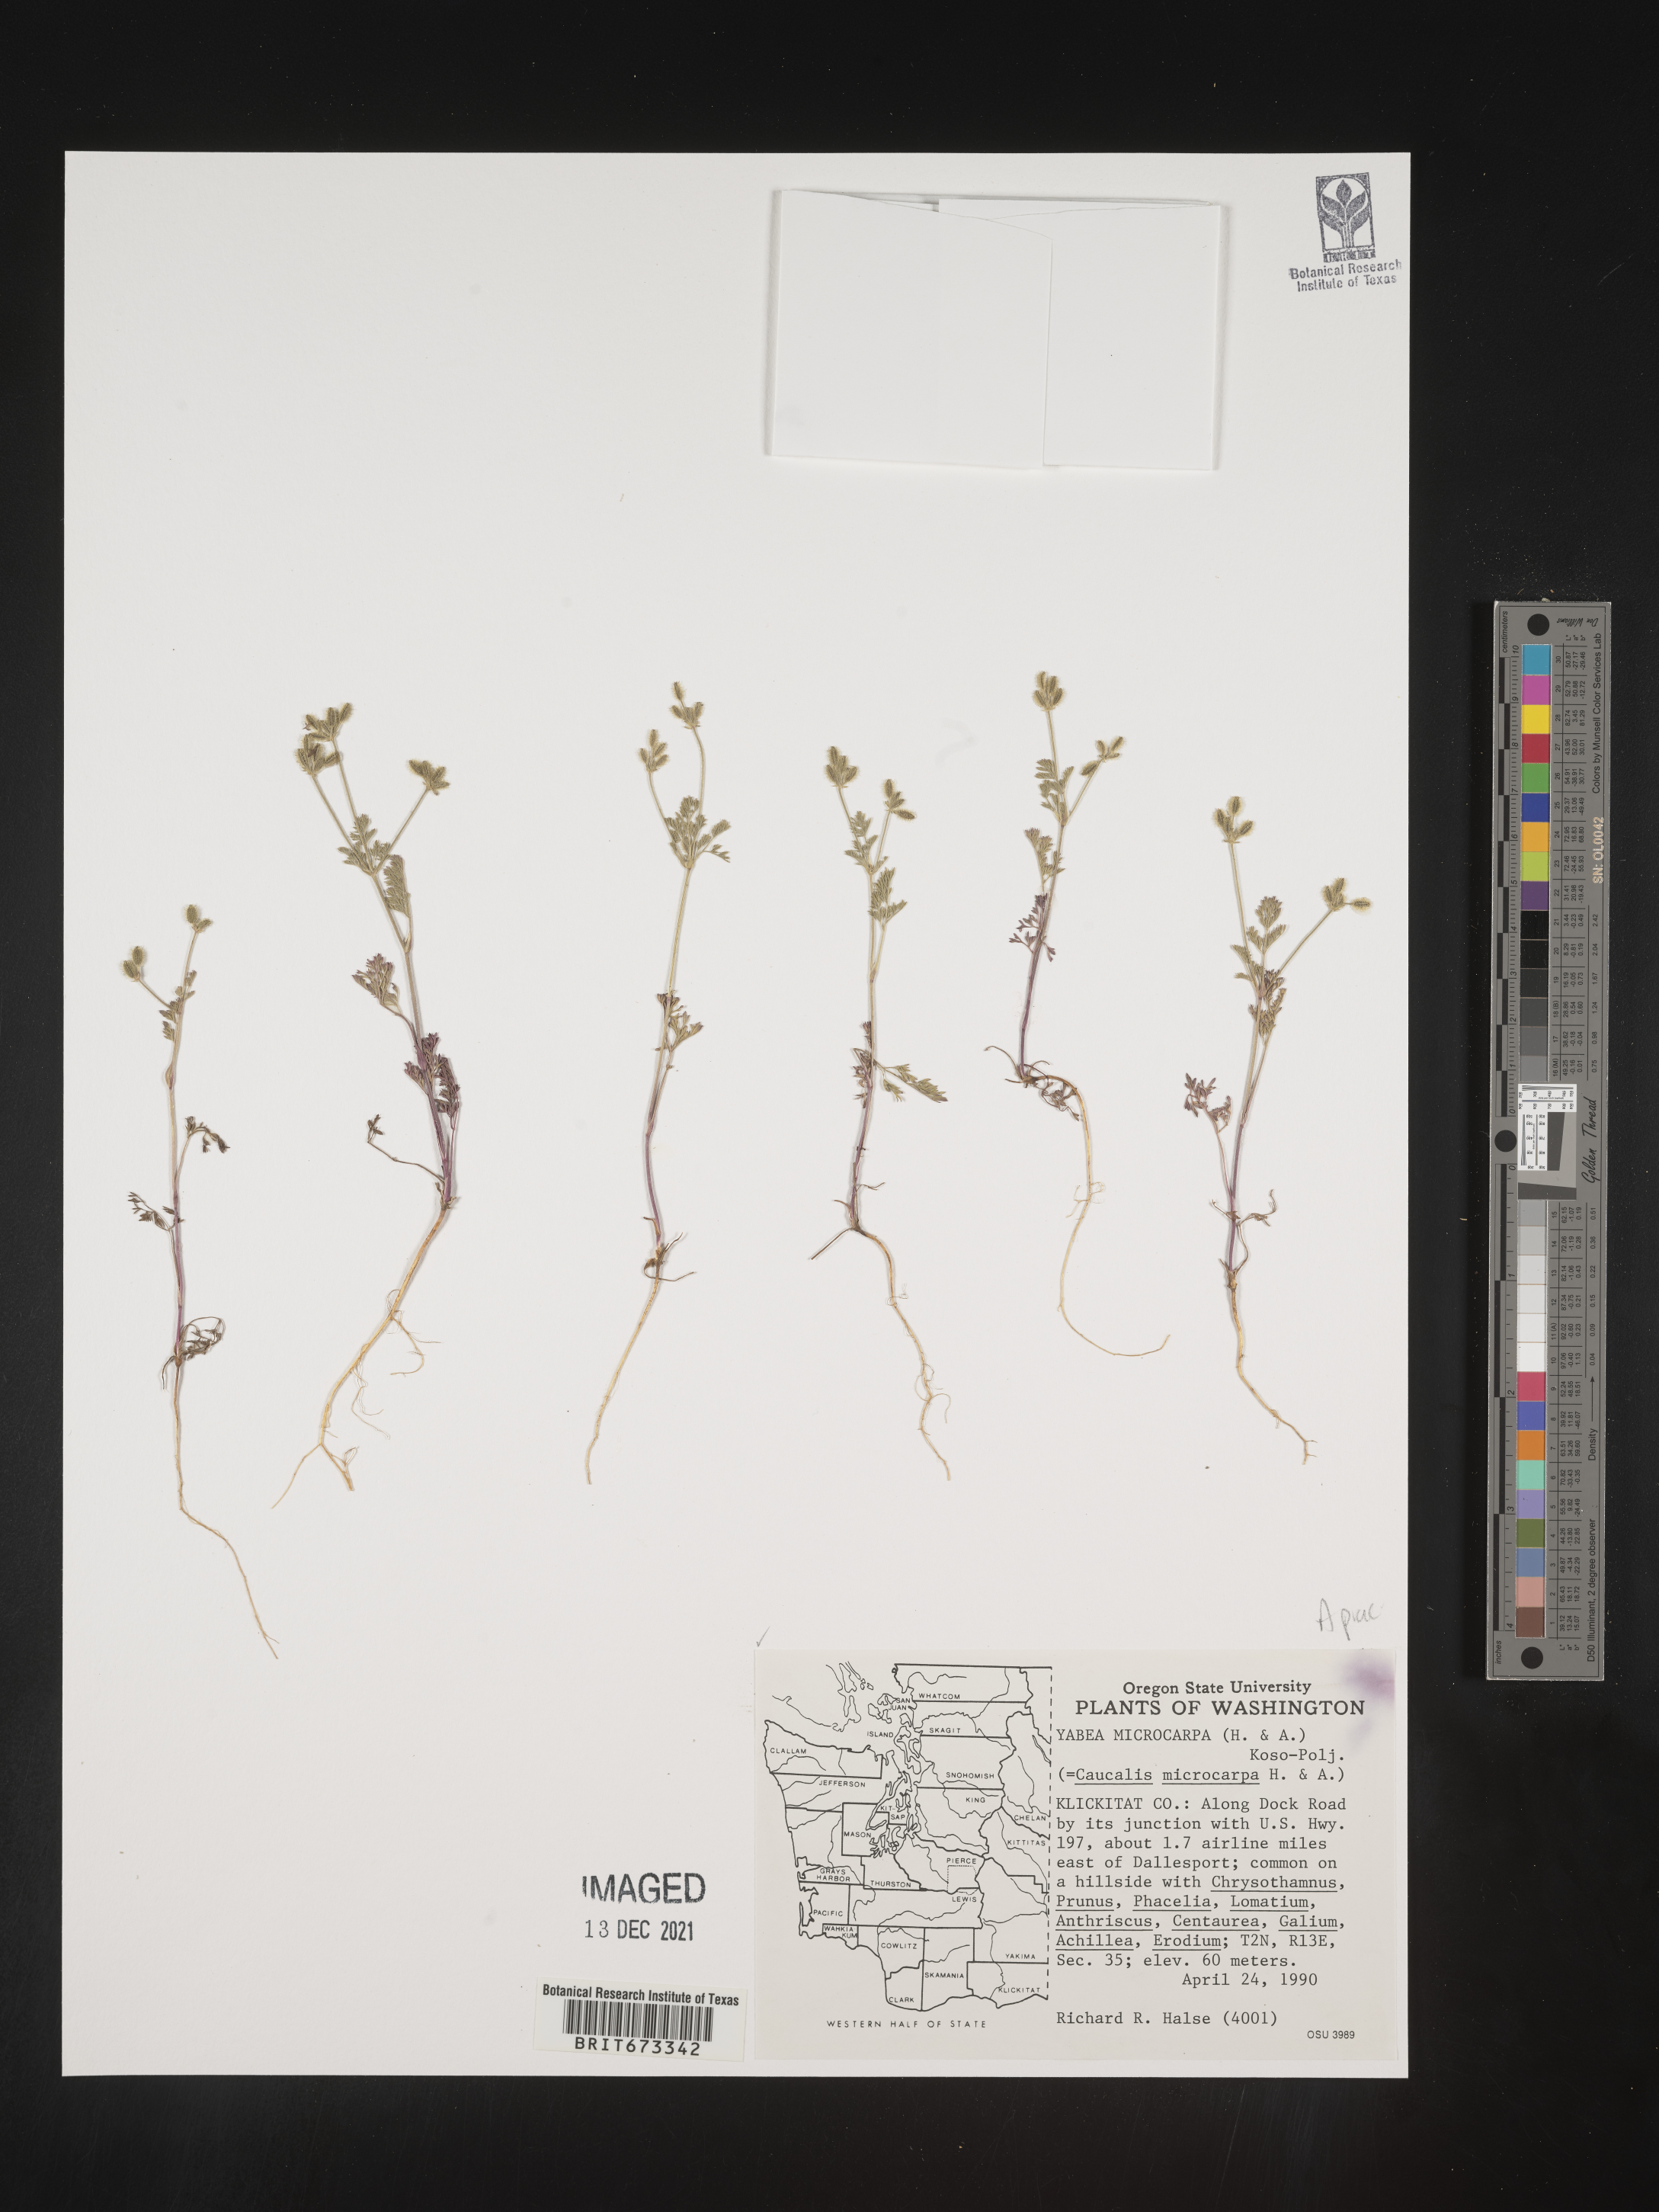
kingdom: Plantae
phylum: Tracheophyta
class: Magnoliopsida
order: Apiales
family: Apiaceae
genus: Yabea
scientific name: Yabea microcarpa
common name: False carrot
